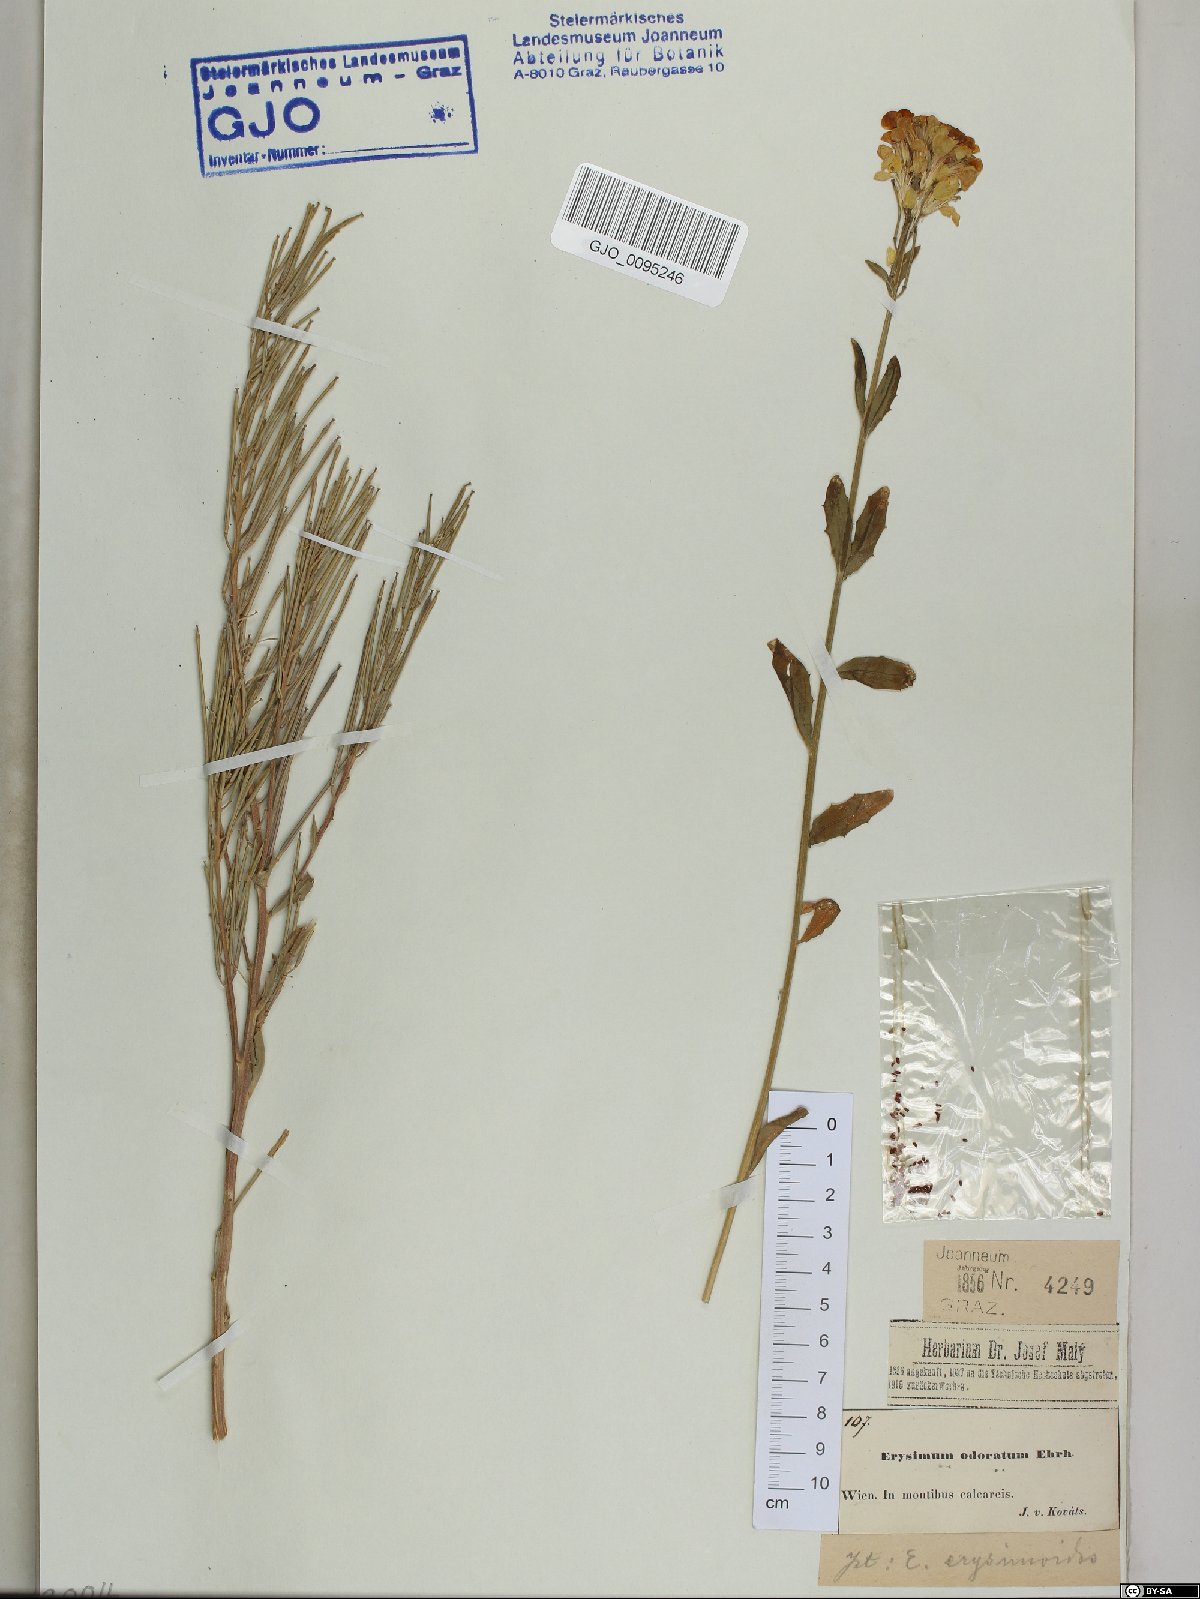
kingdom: Plantae
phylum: Tracheophyta
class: Magnoliopsida
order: Brassicales
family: Brassicaceae
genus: Erysimum
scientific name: Erysimum odoratum
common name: Smelly wallflower
